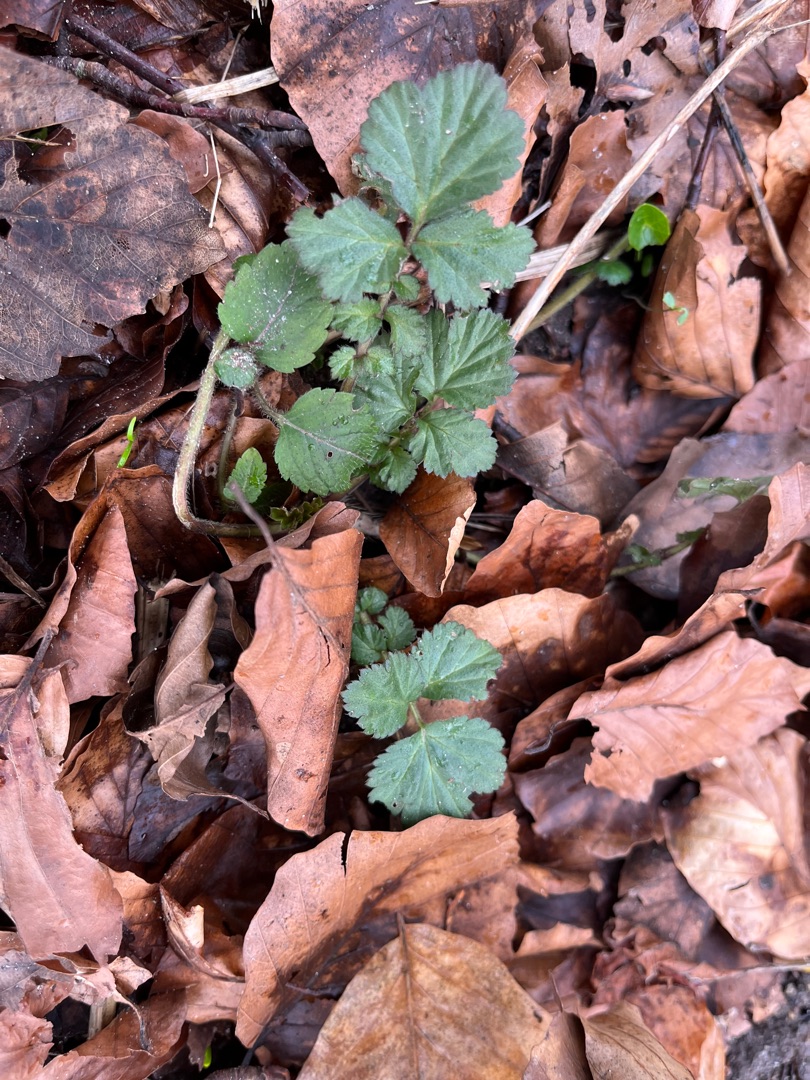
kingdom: Plantae
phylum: Tracheophyta
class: Magnoliopsida
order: Rosales
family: Rosaceae
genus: Geum
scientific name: Geum urbanum
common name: Feber-nellikerod
